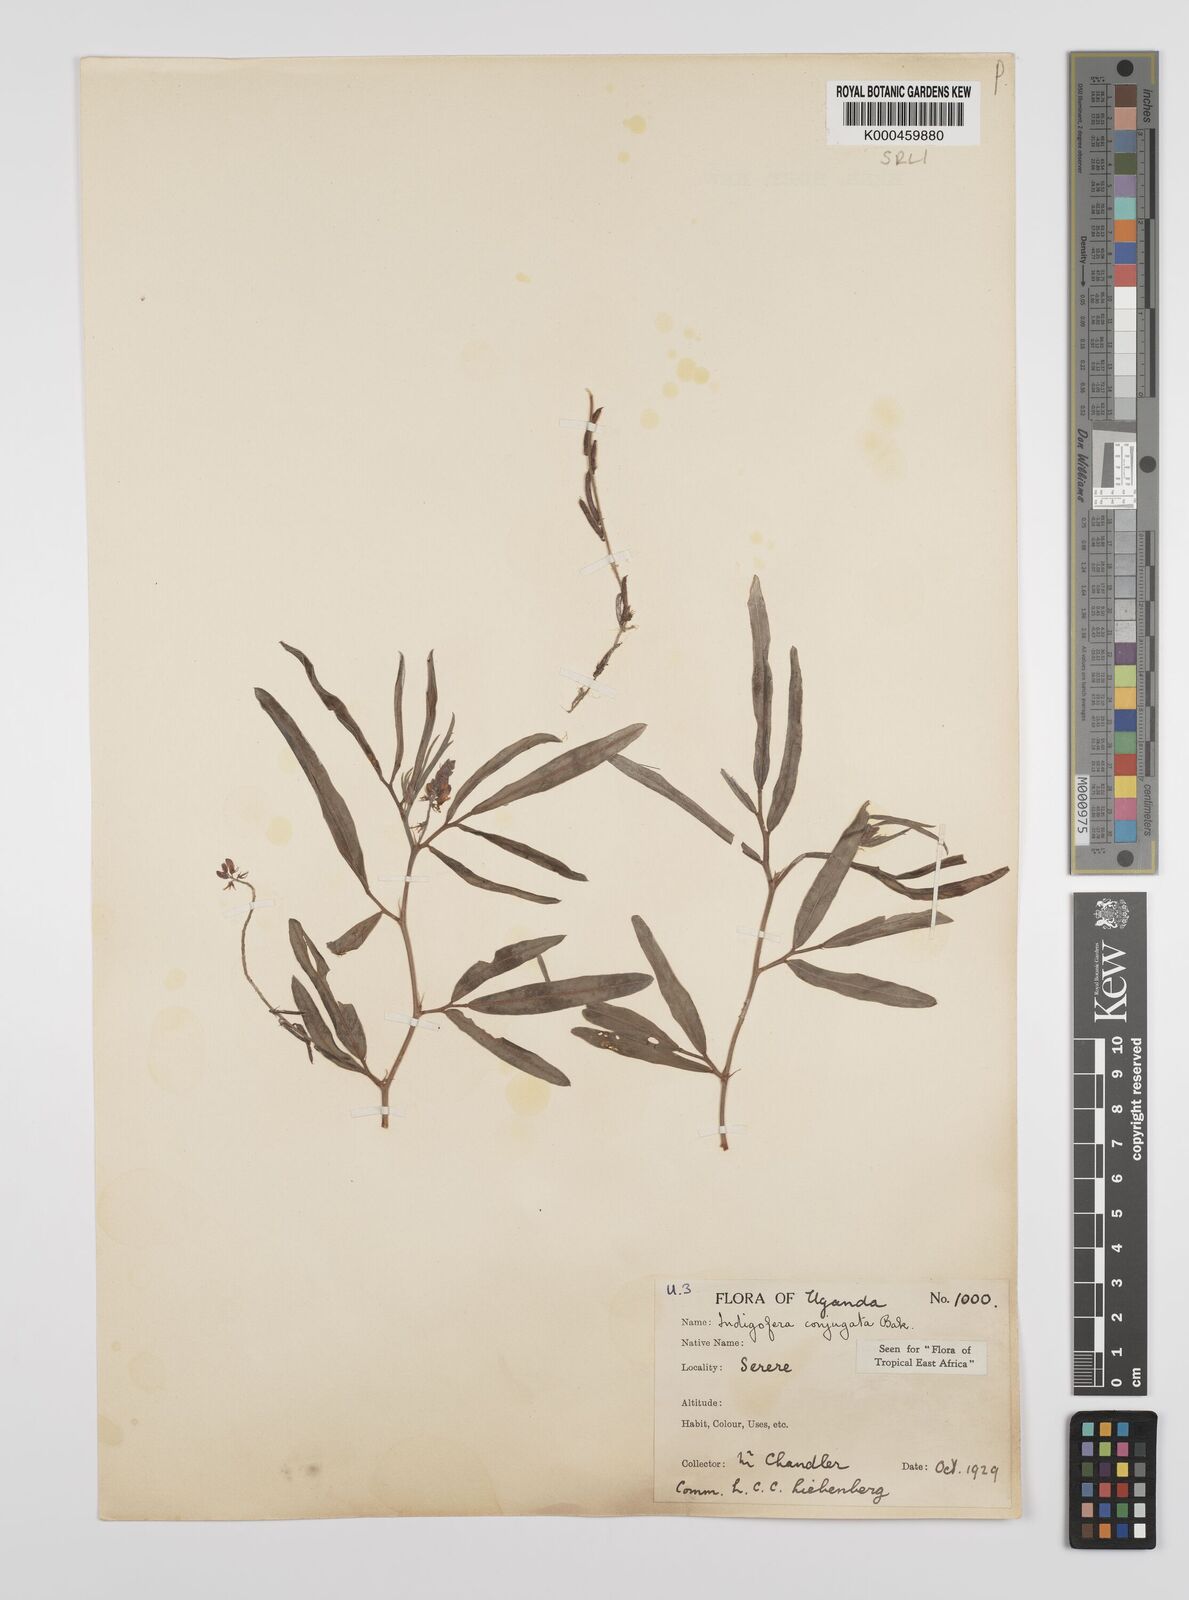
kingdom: Plantae
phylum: Tracheophyta
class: Magnoliopsida
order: Fabales
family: Fabaceae
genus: Indigofera
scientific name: Indigofera conjugata
